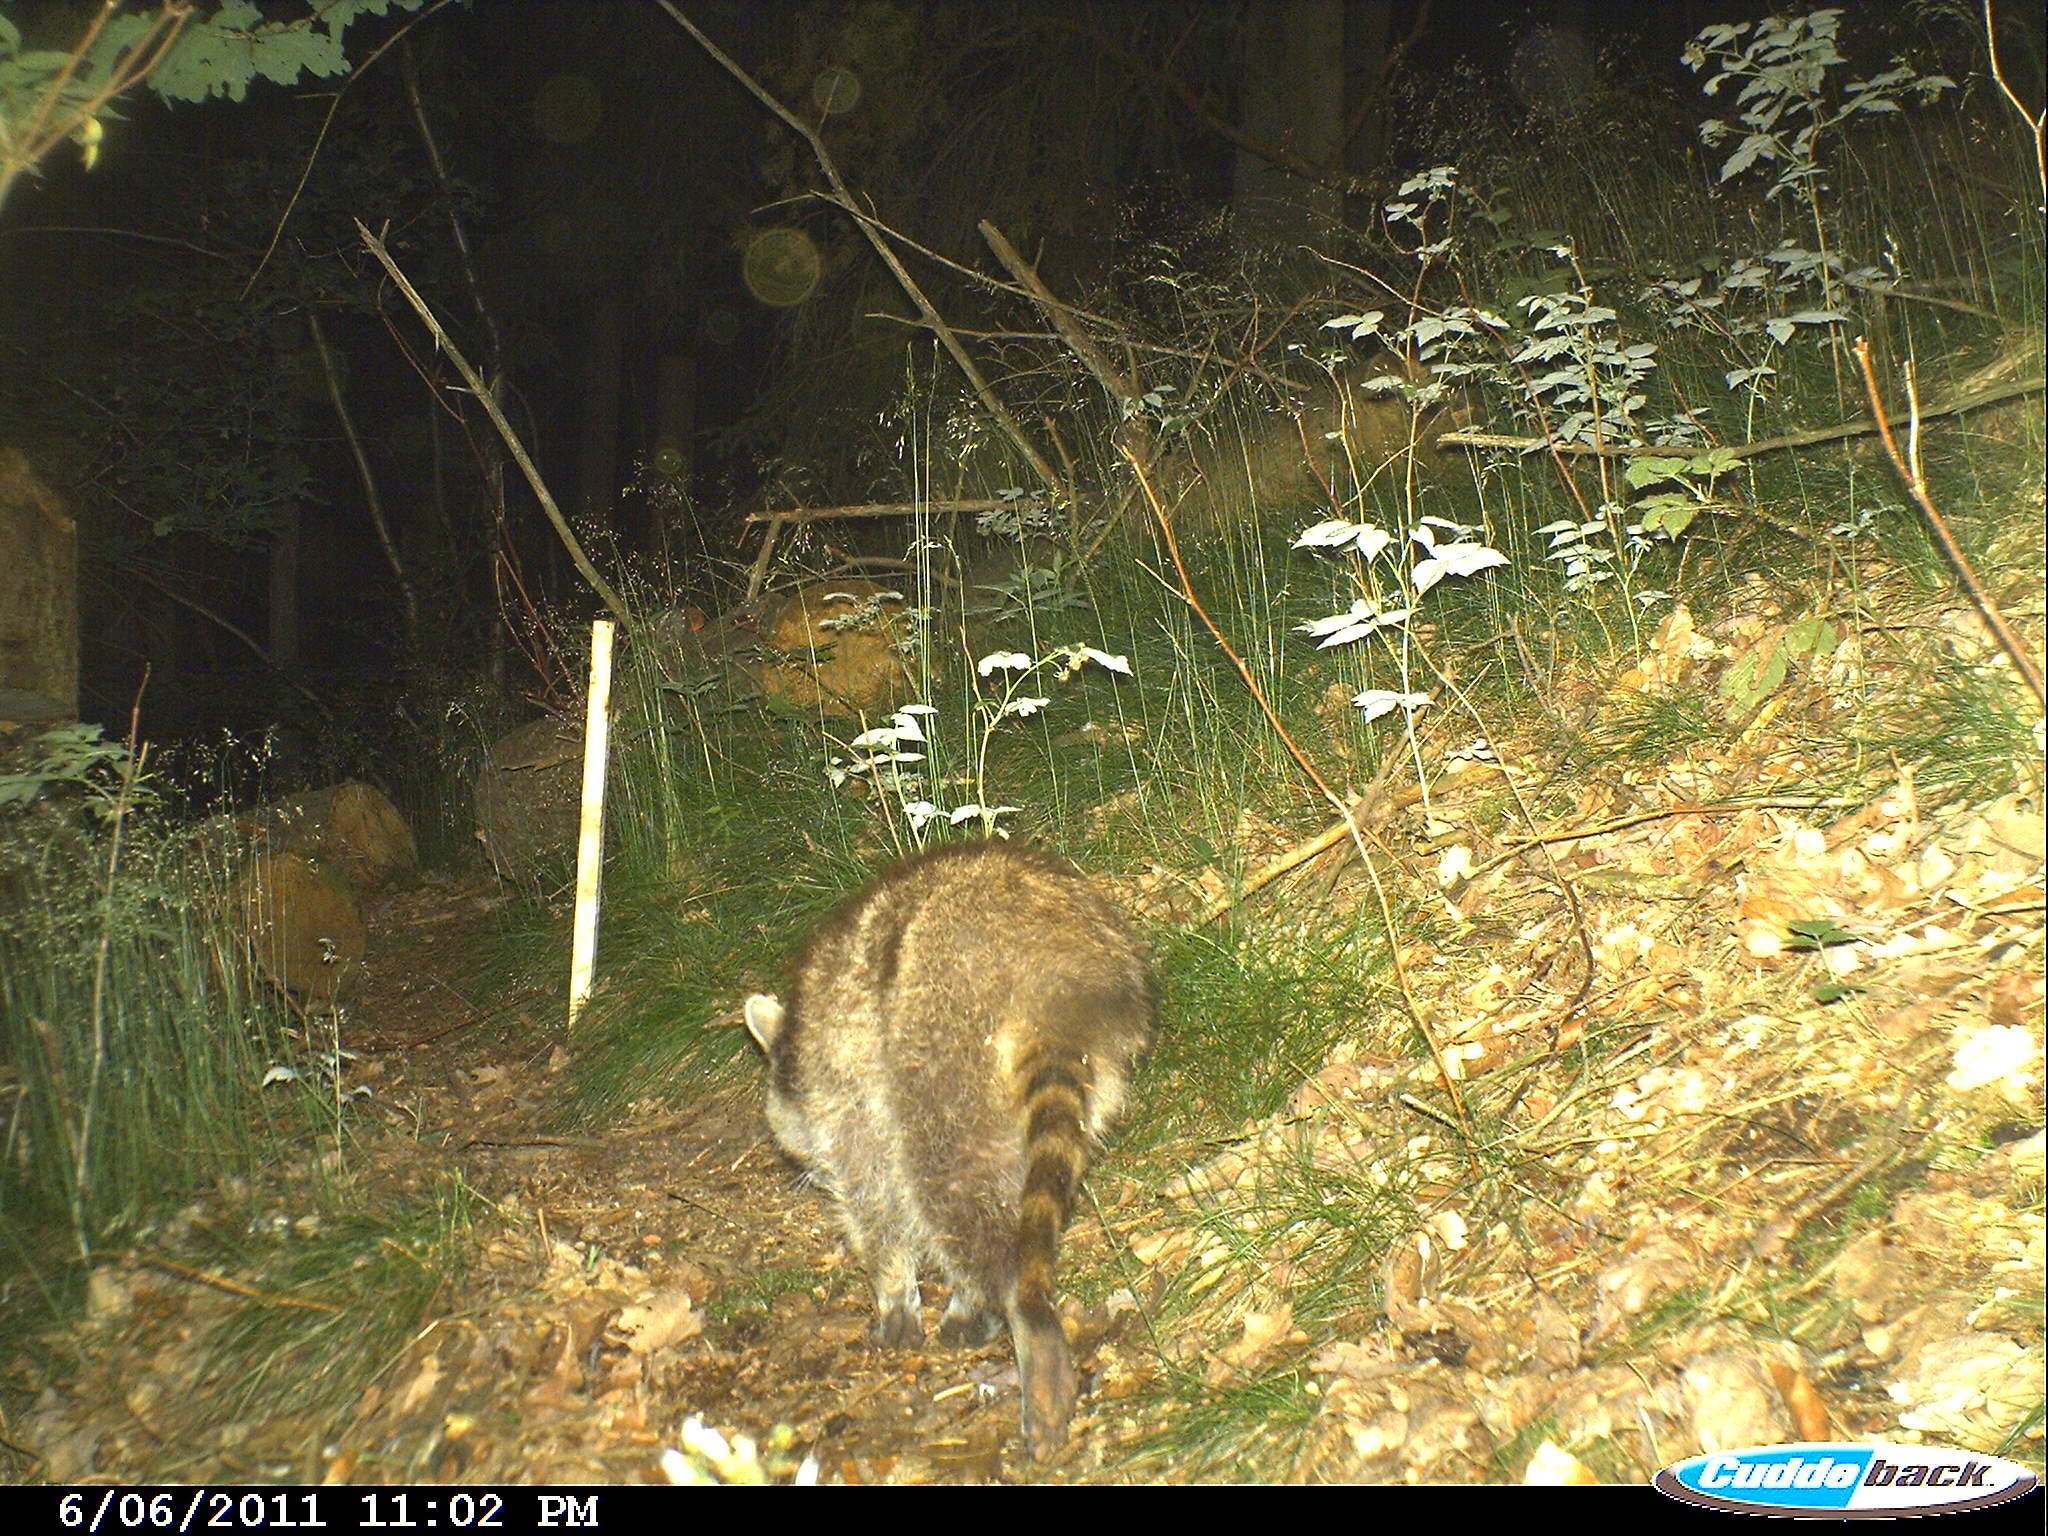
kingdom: Animalia
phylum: Chordata
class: Mammalia
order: Carnivora
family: Procyonidae
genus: Procyon
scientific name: Procyon lotor
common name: Raccoon
